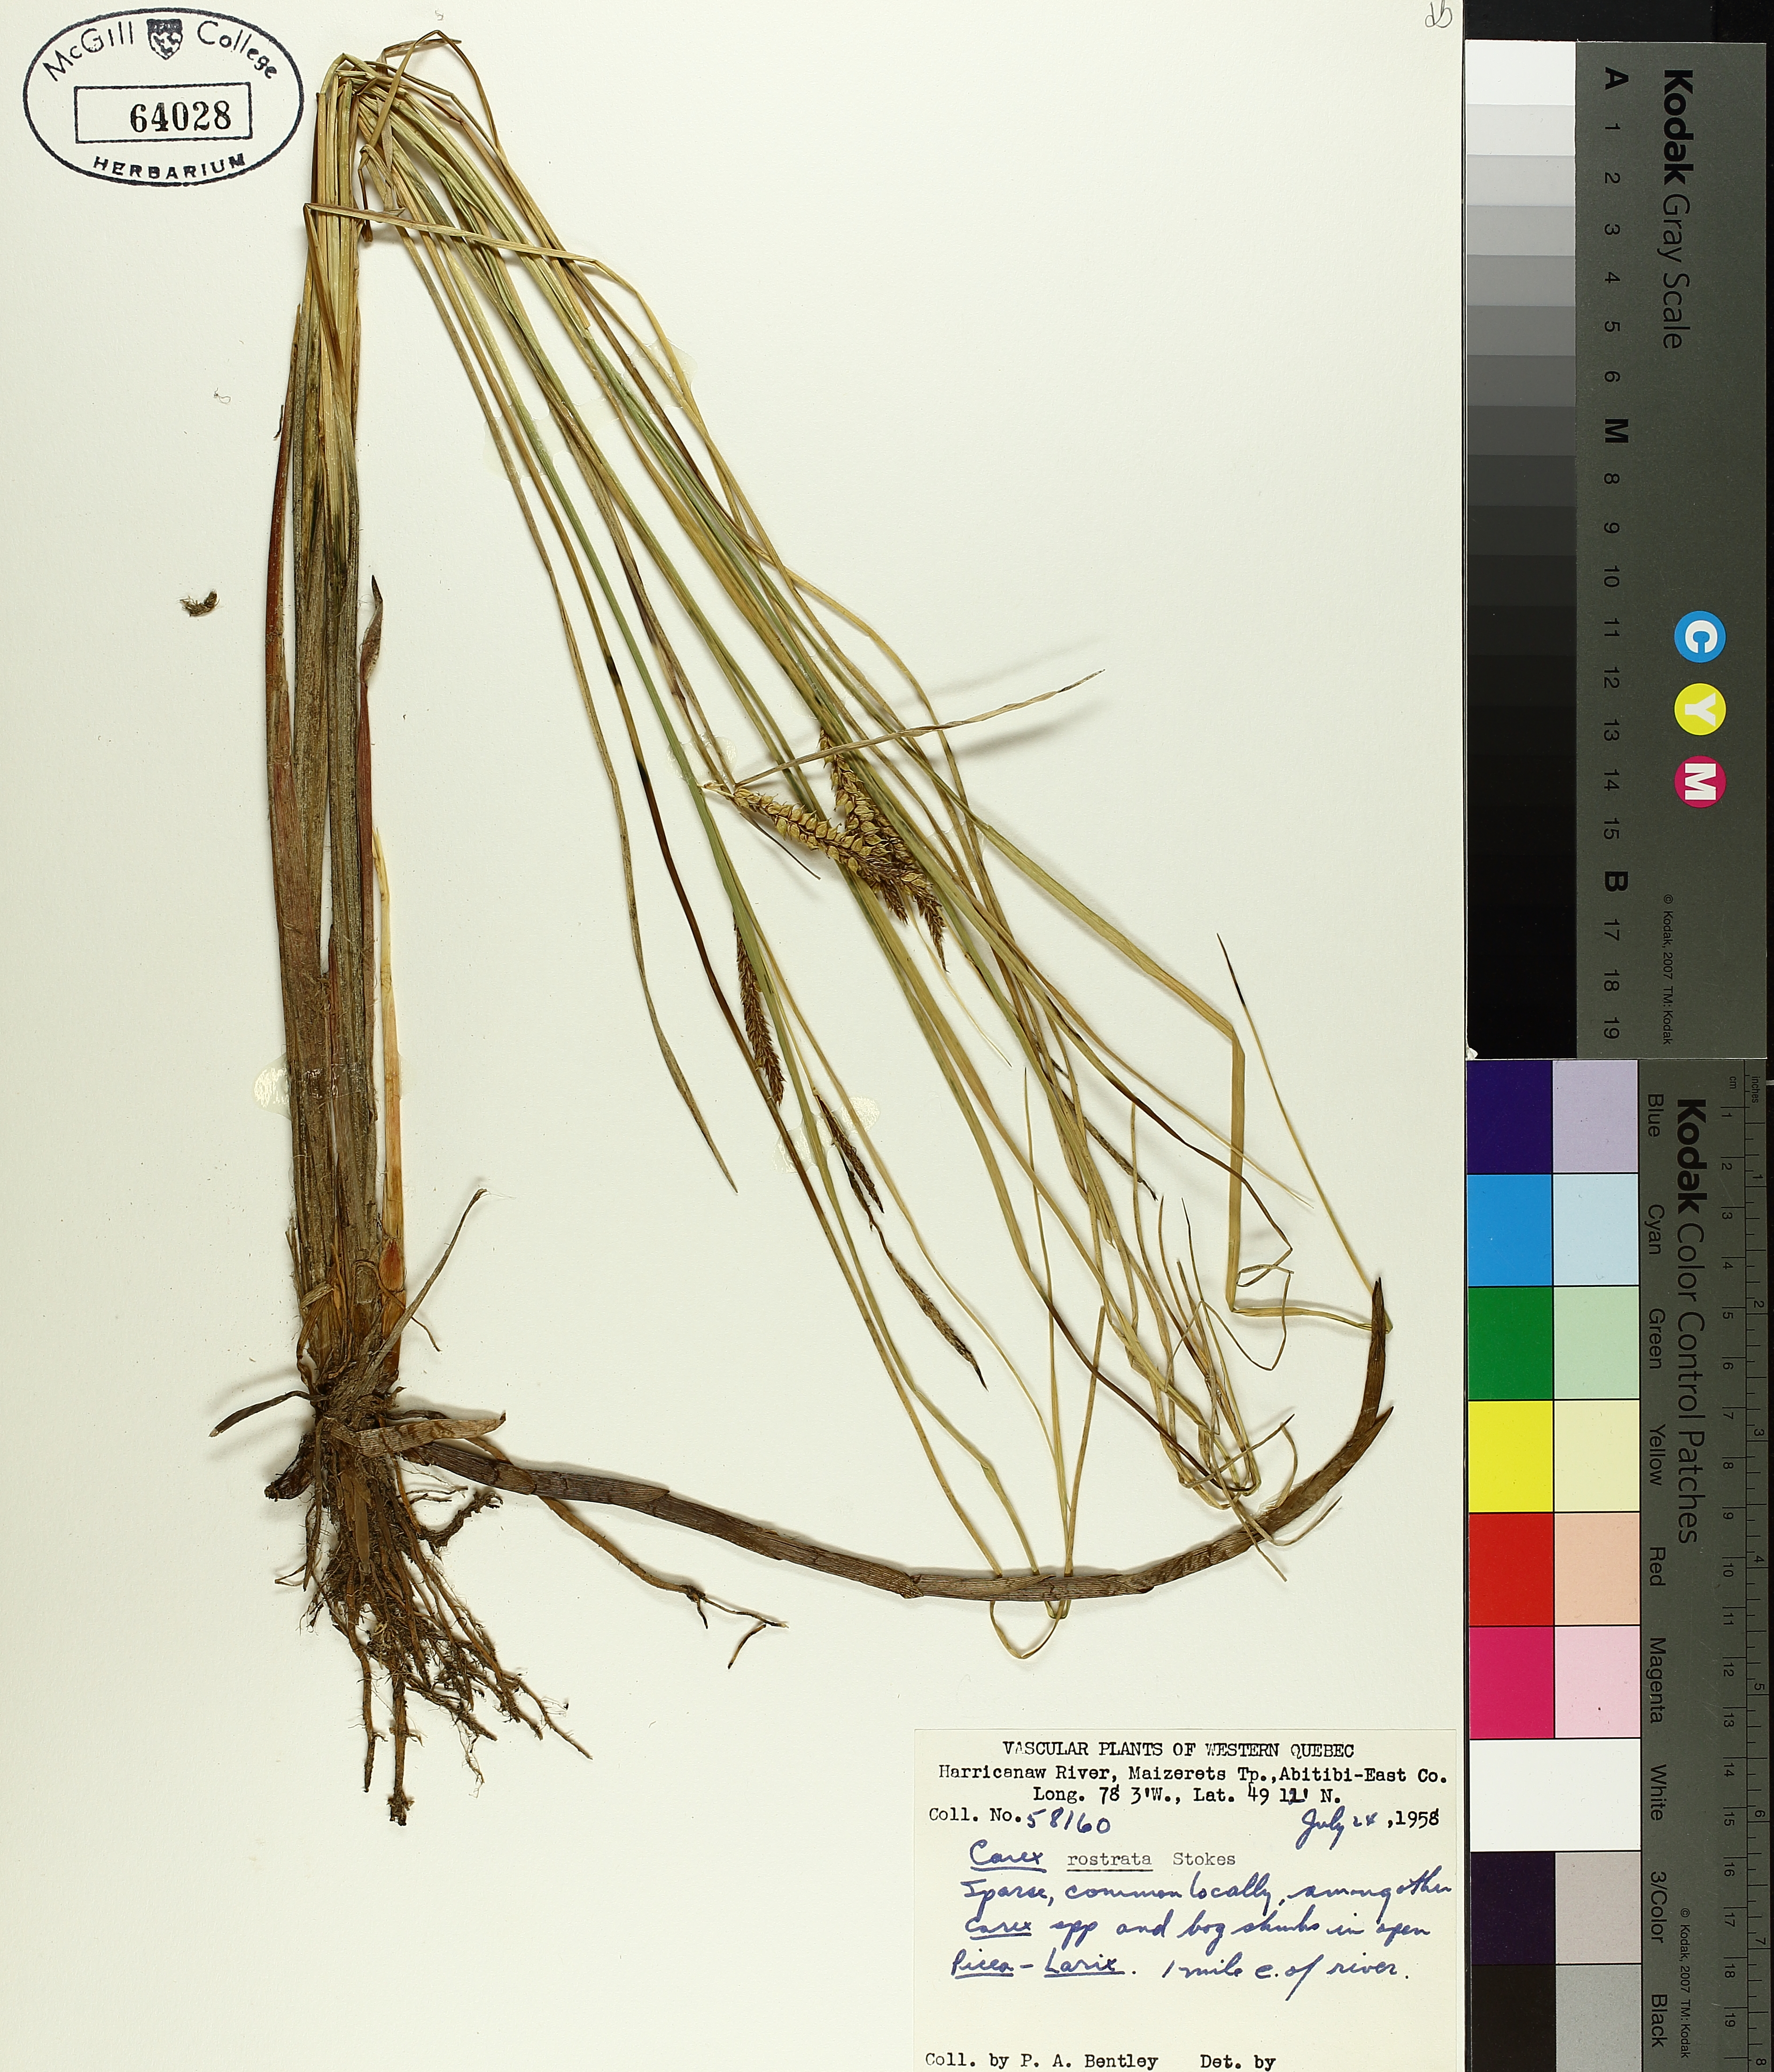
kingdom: Plantae
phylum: Tracheophyta
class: Liliopsida
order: Poales
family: Cyperaceae
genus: Carex
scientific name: Carex rostrata
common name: Bottle sedge
